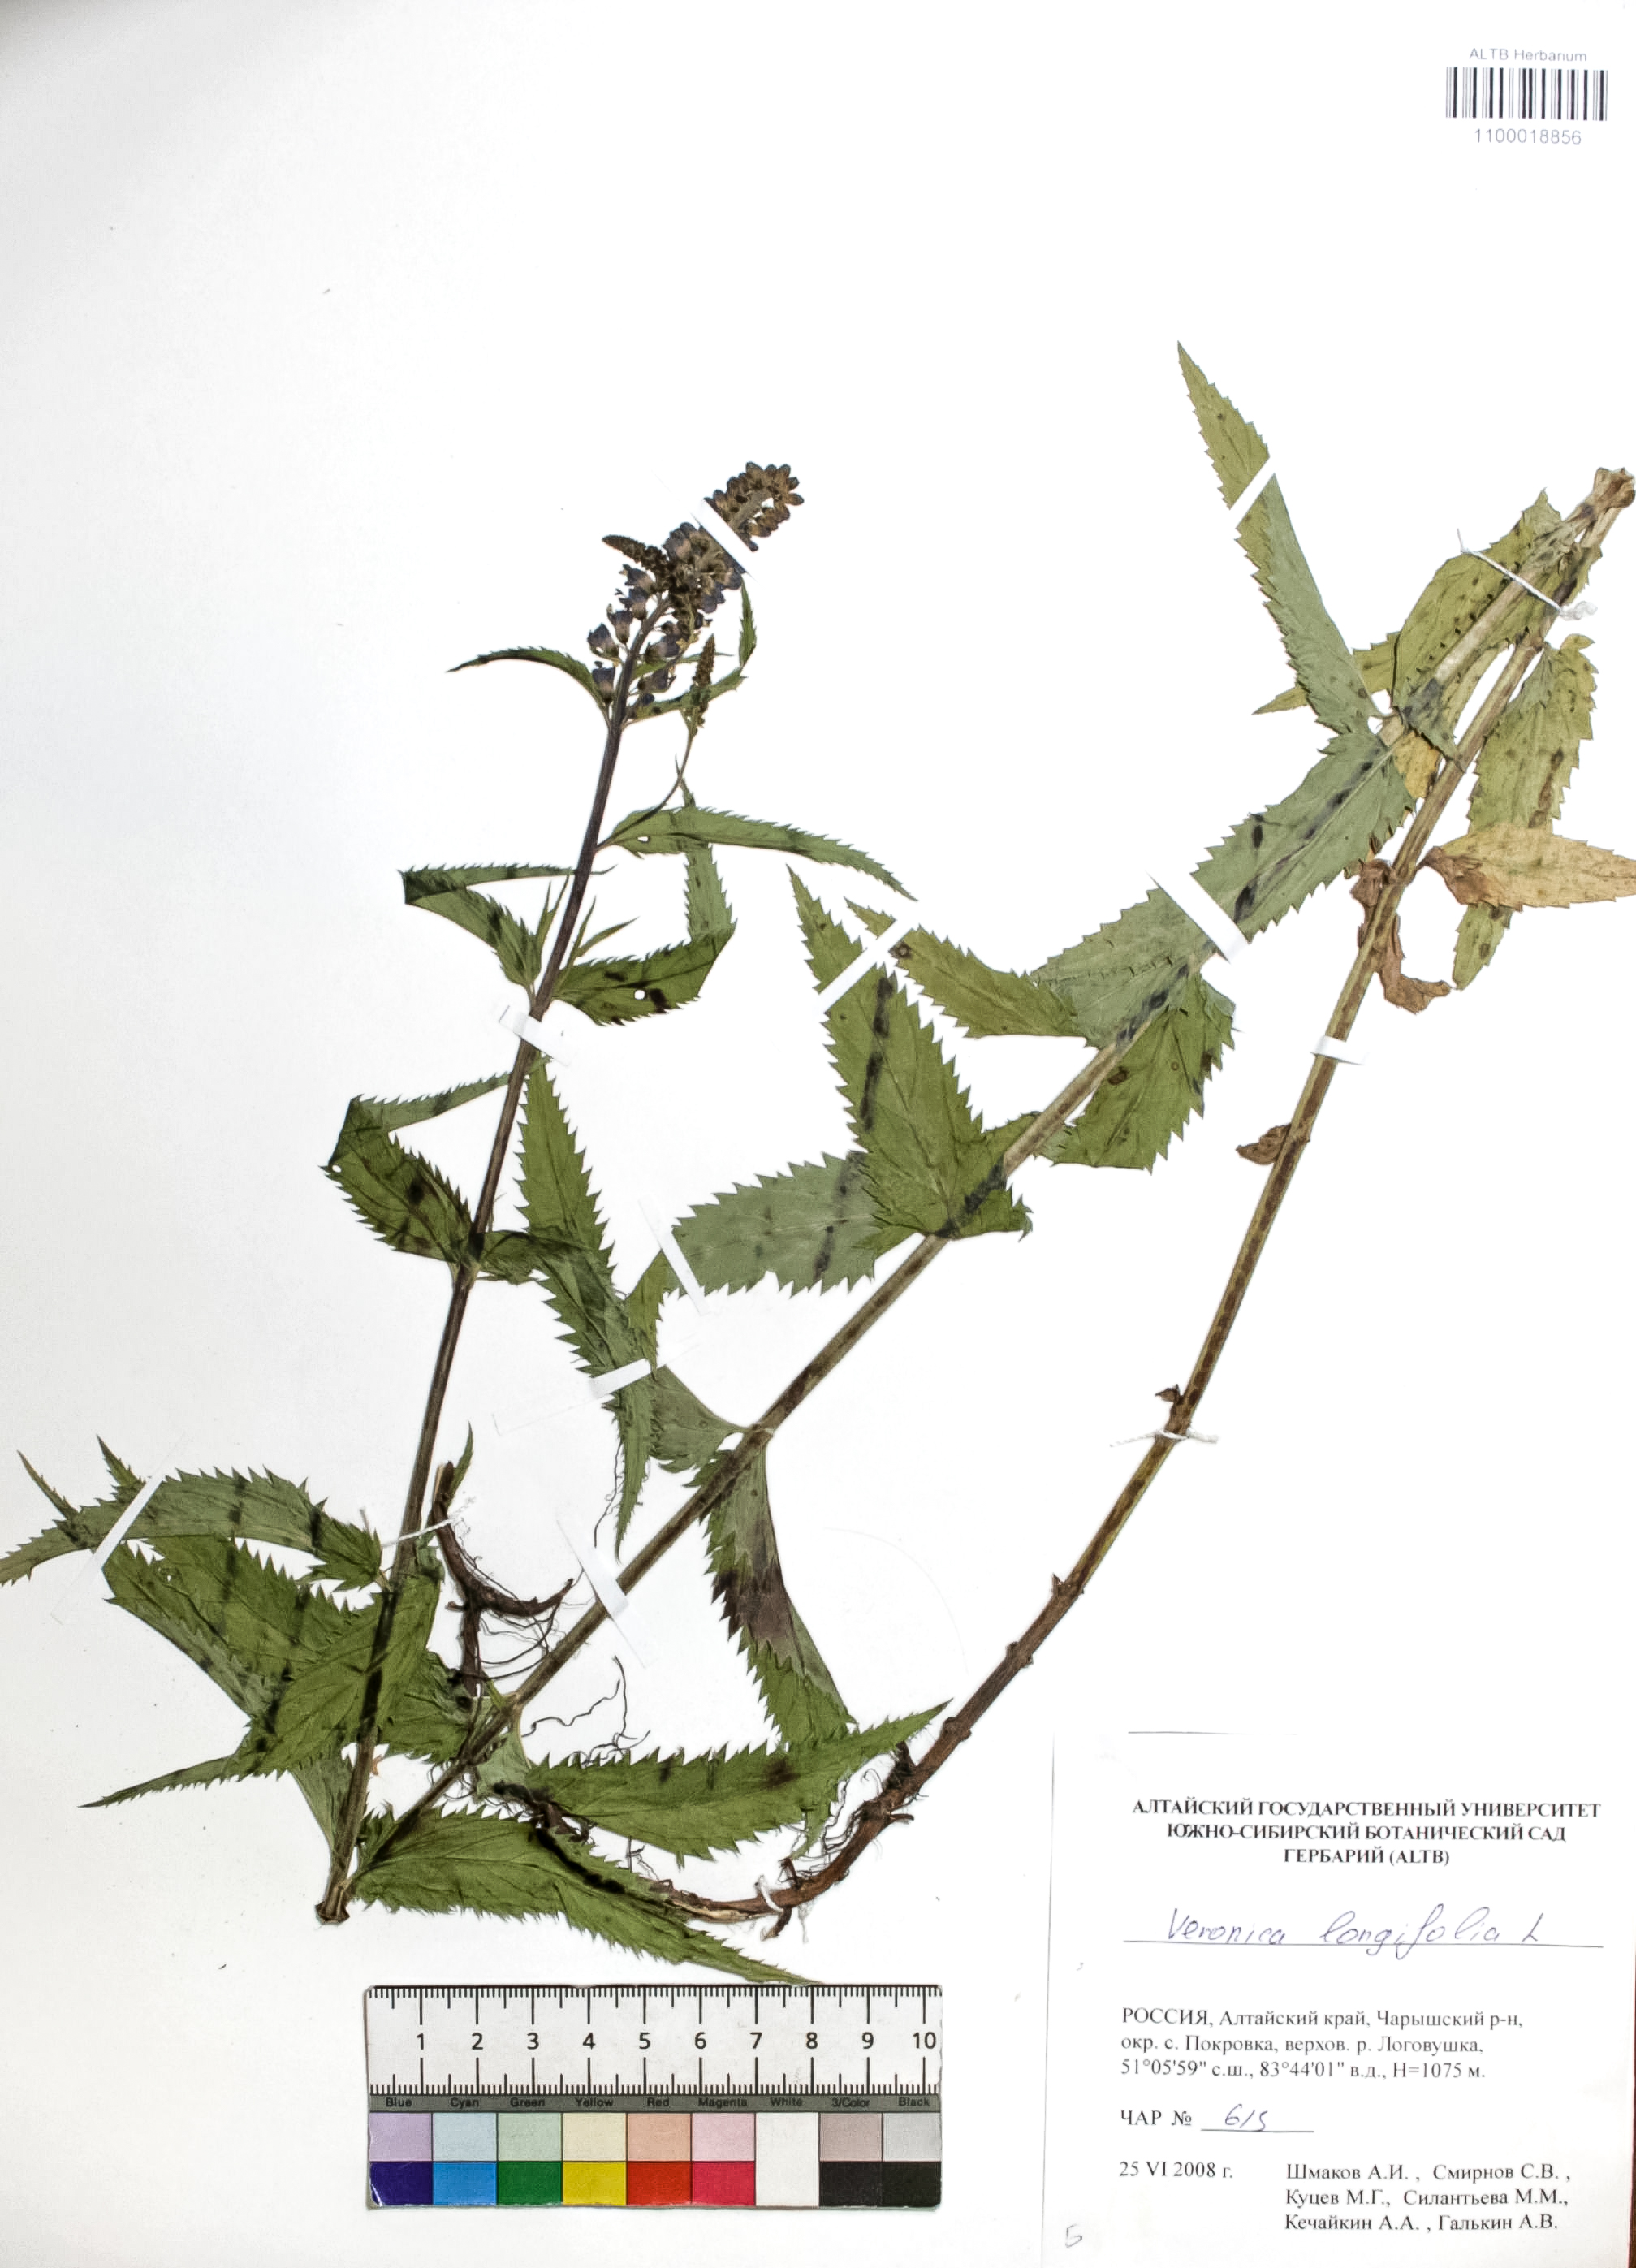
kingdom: Plantae
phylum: Tracheophyta
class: Magnoliopsida
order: Lamiales
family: Plantaginaceae
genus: Veronica
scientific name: Veronica longifolia
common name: Garden speedwell
